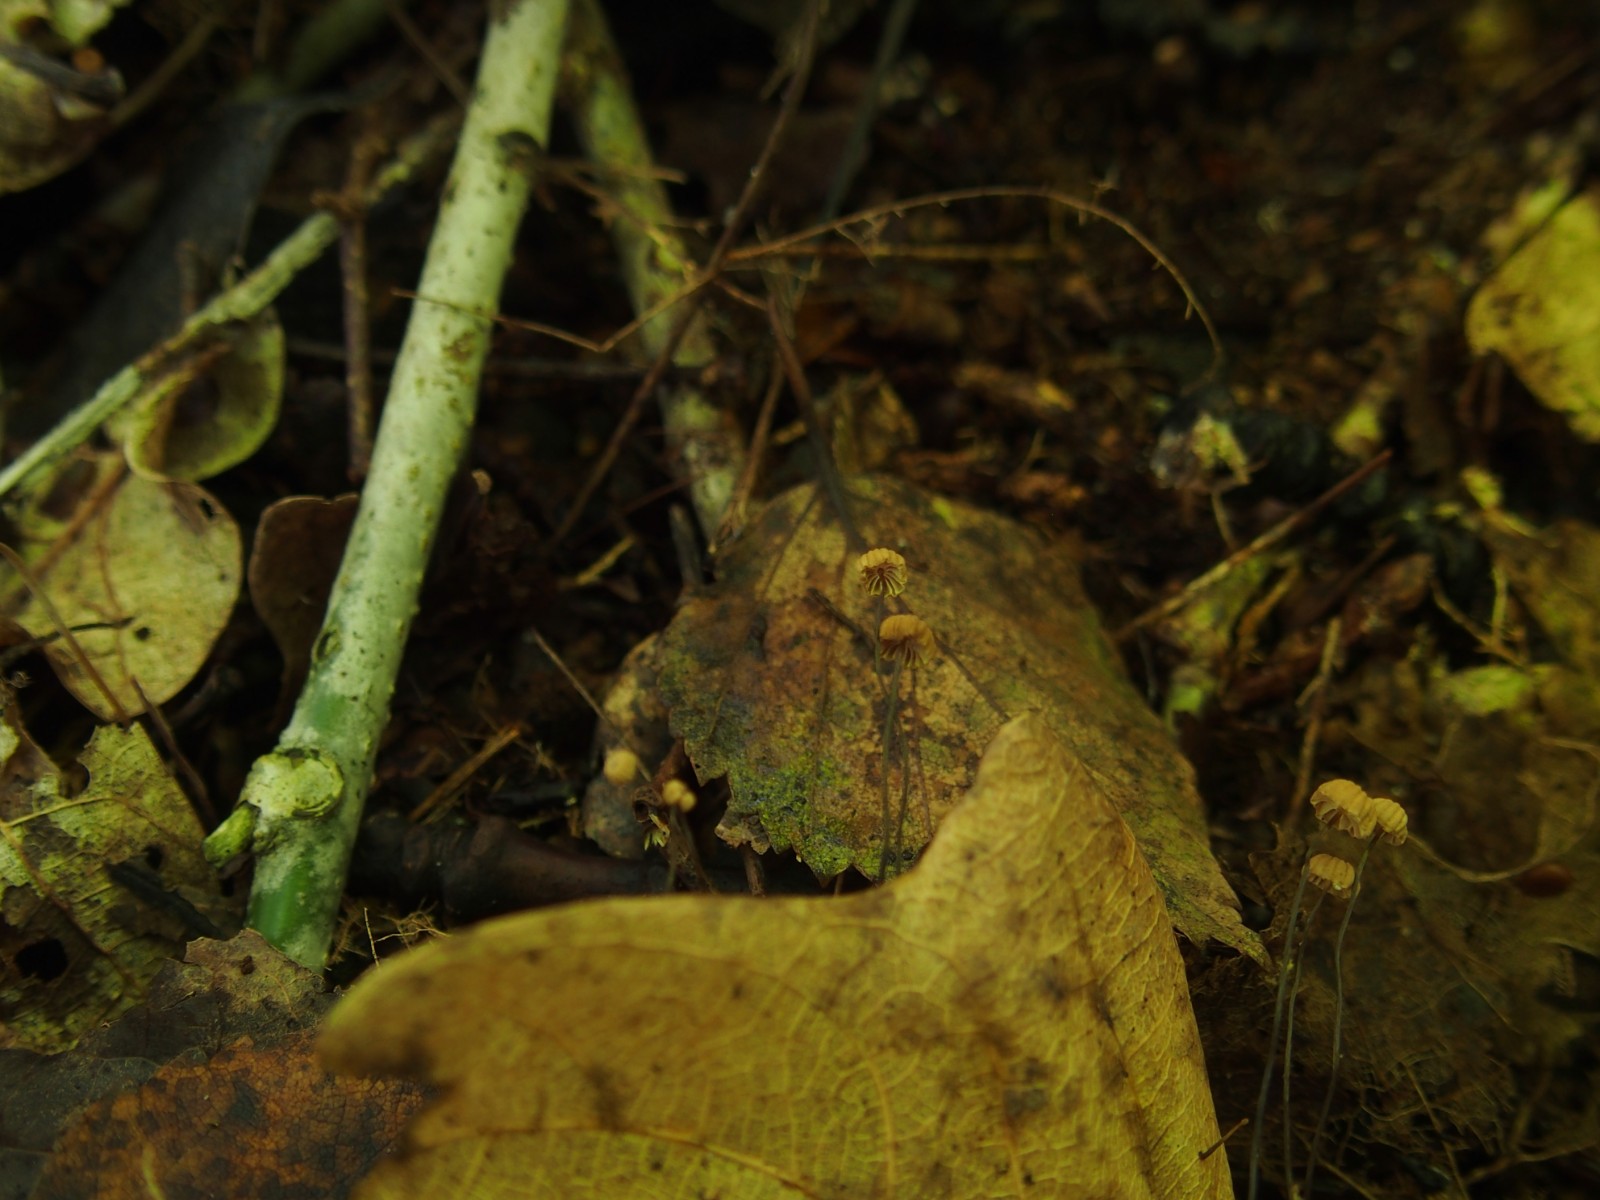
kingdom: Fungi
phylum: Basidiomycota
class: Agaricomycetes
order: Agaricales
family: Marasmiaceae
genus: Marasmius
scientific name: Marasmius bulliardii
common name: furet bruskhat
